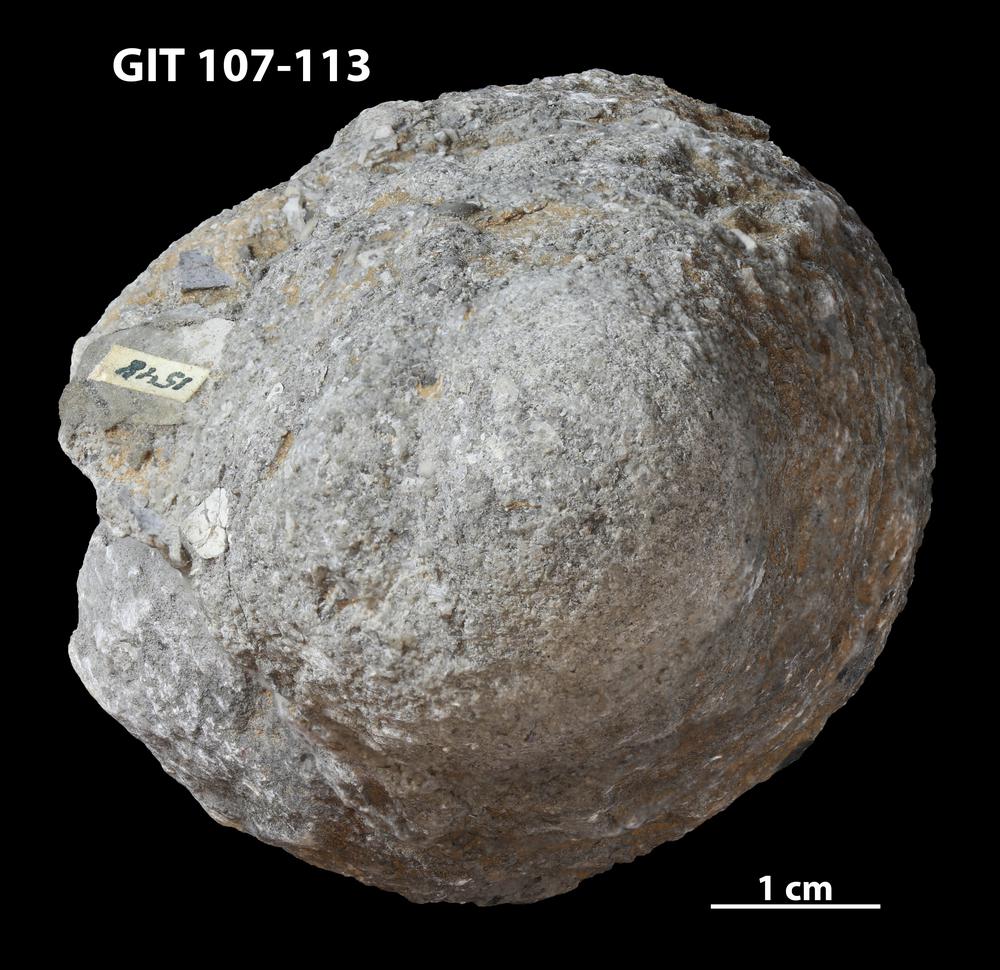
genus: Conichnus
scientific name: Conichnus
